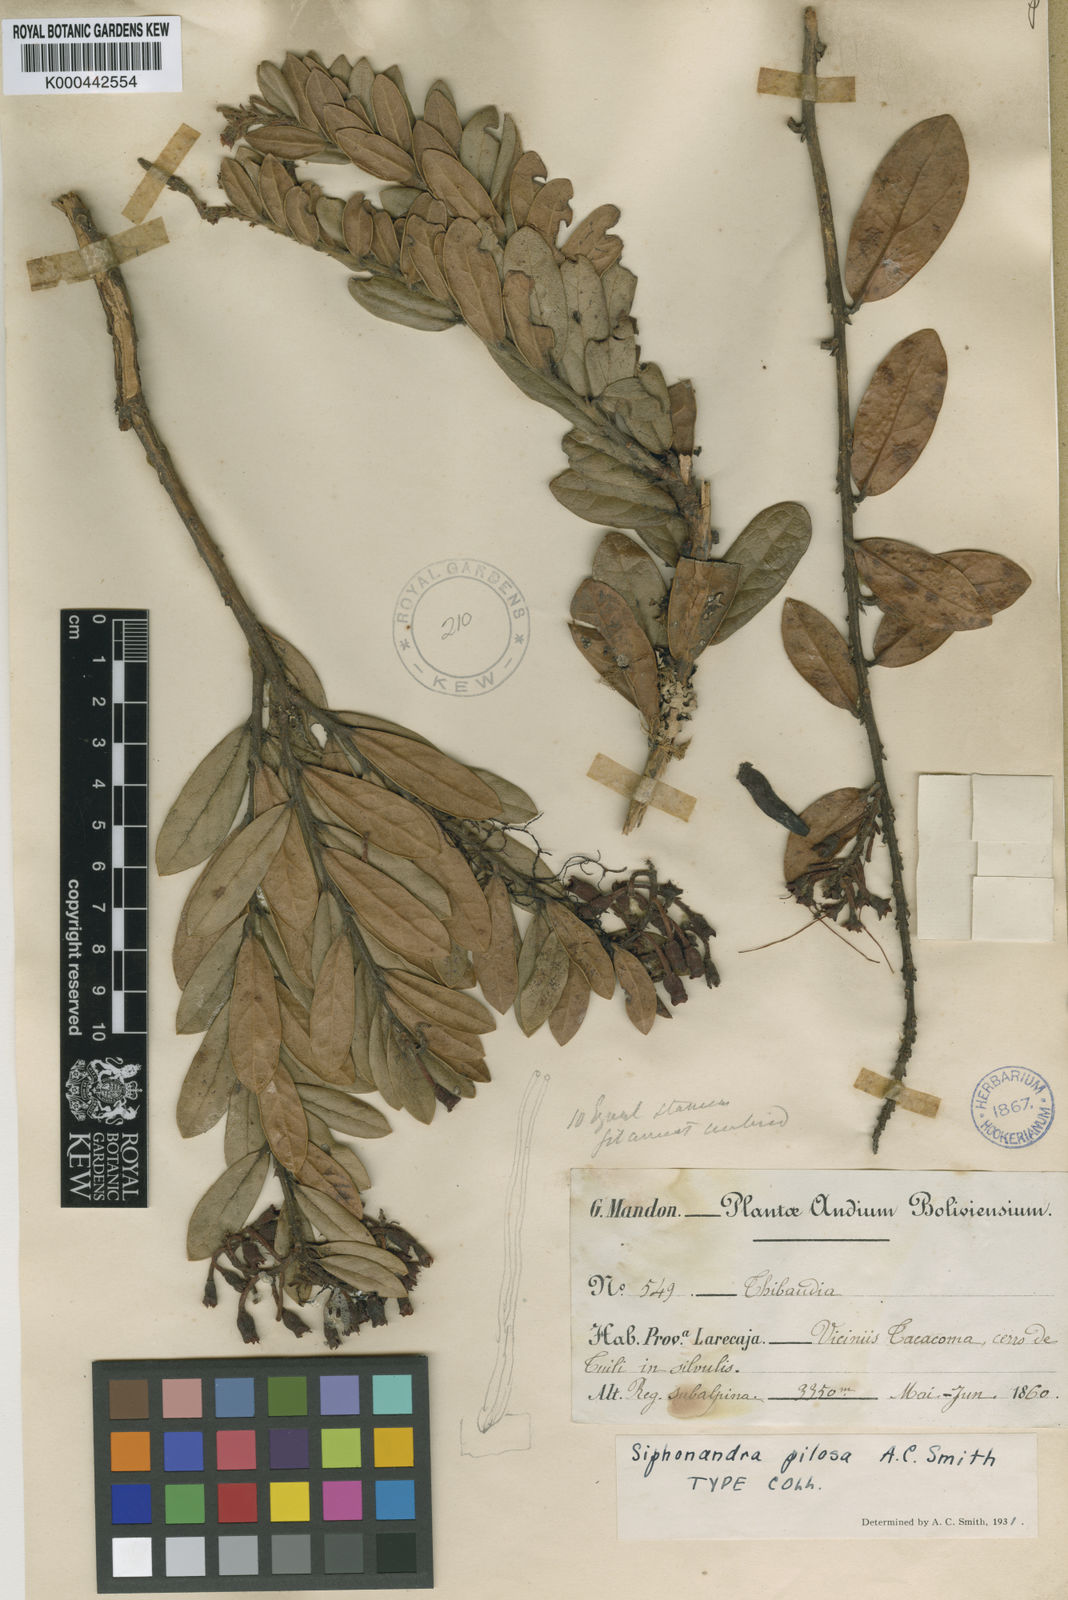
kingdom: Plantae
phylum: Tracheophyta
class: Magnoliopsida
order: Ericales
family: Ericaceae
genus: Siphonandra
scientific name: Siphonandra elliptica
